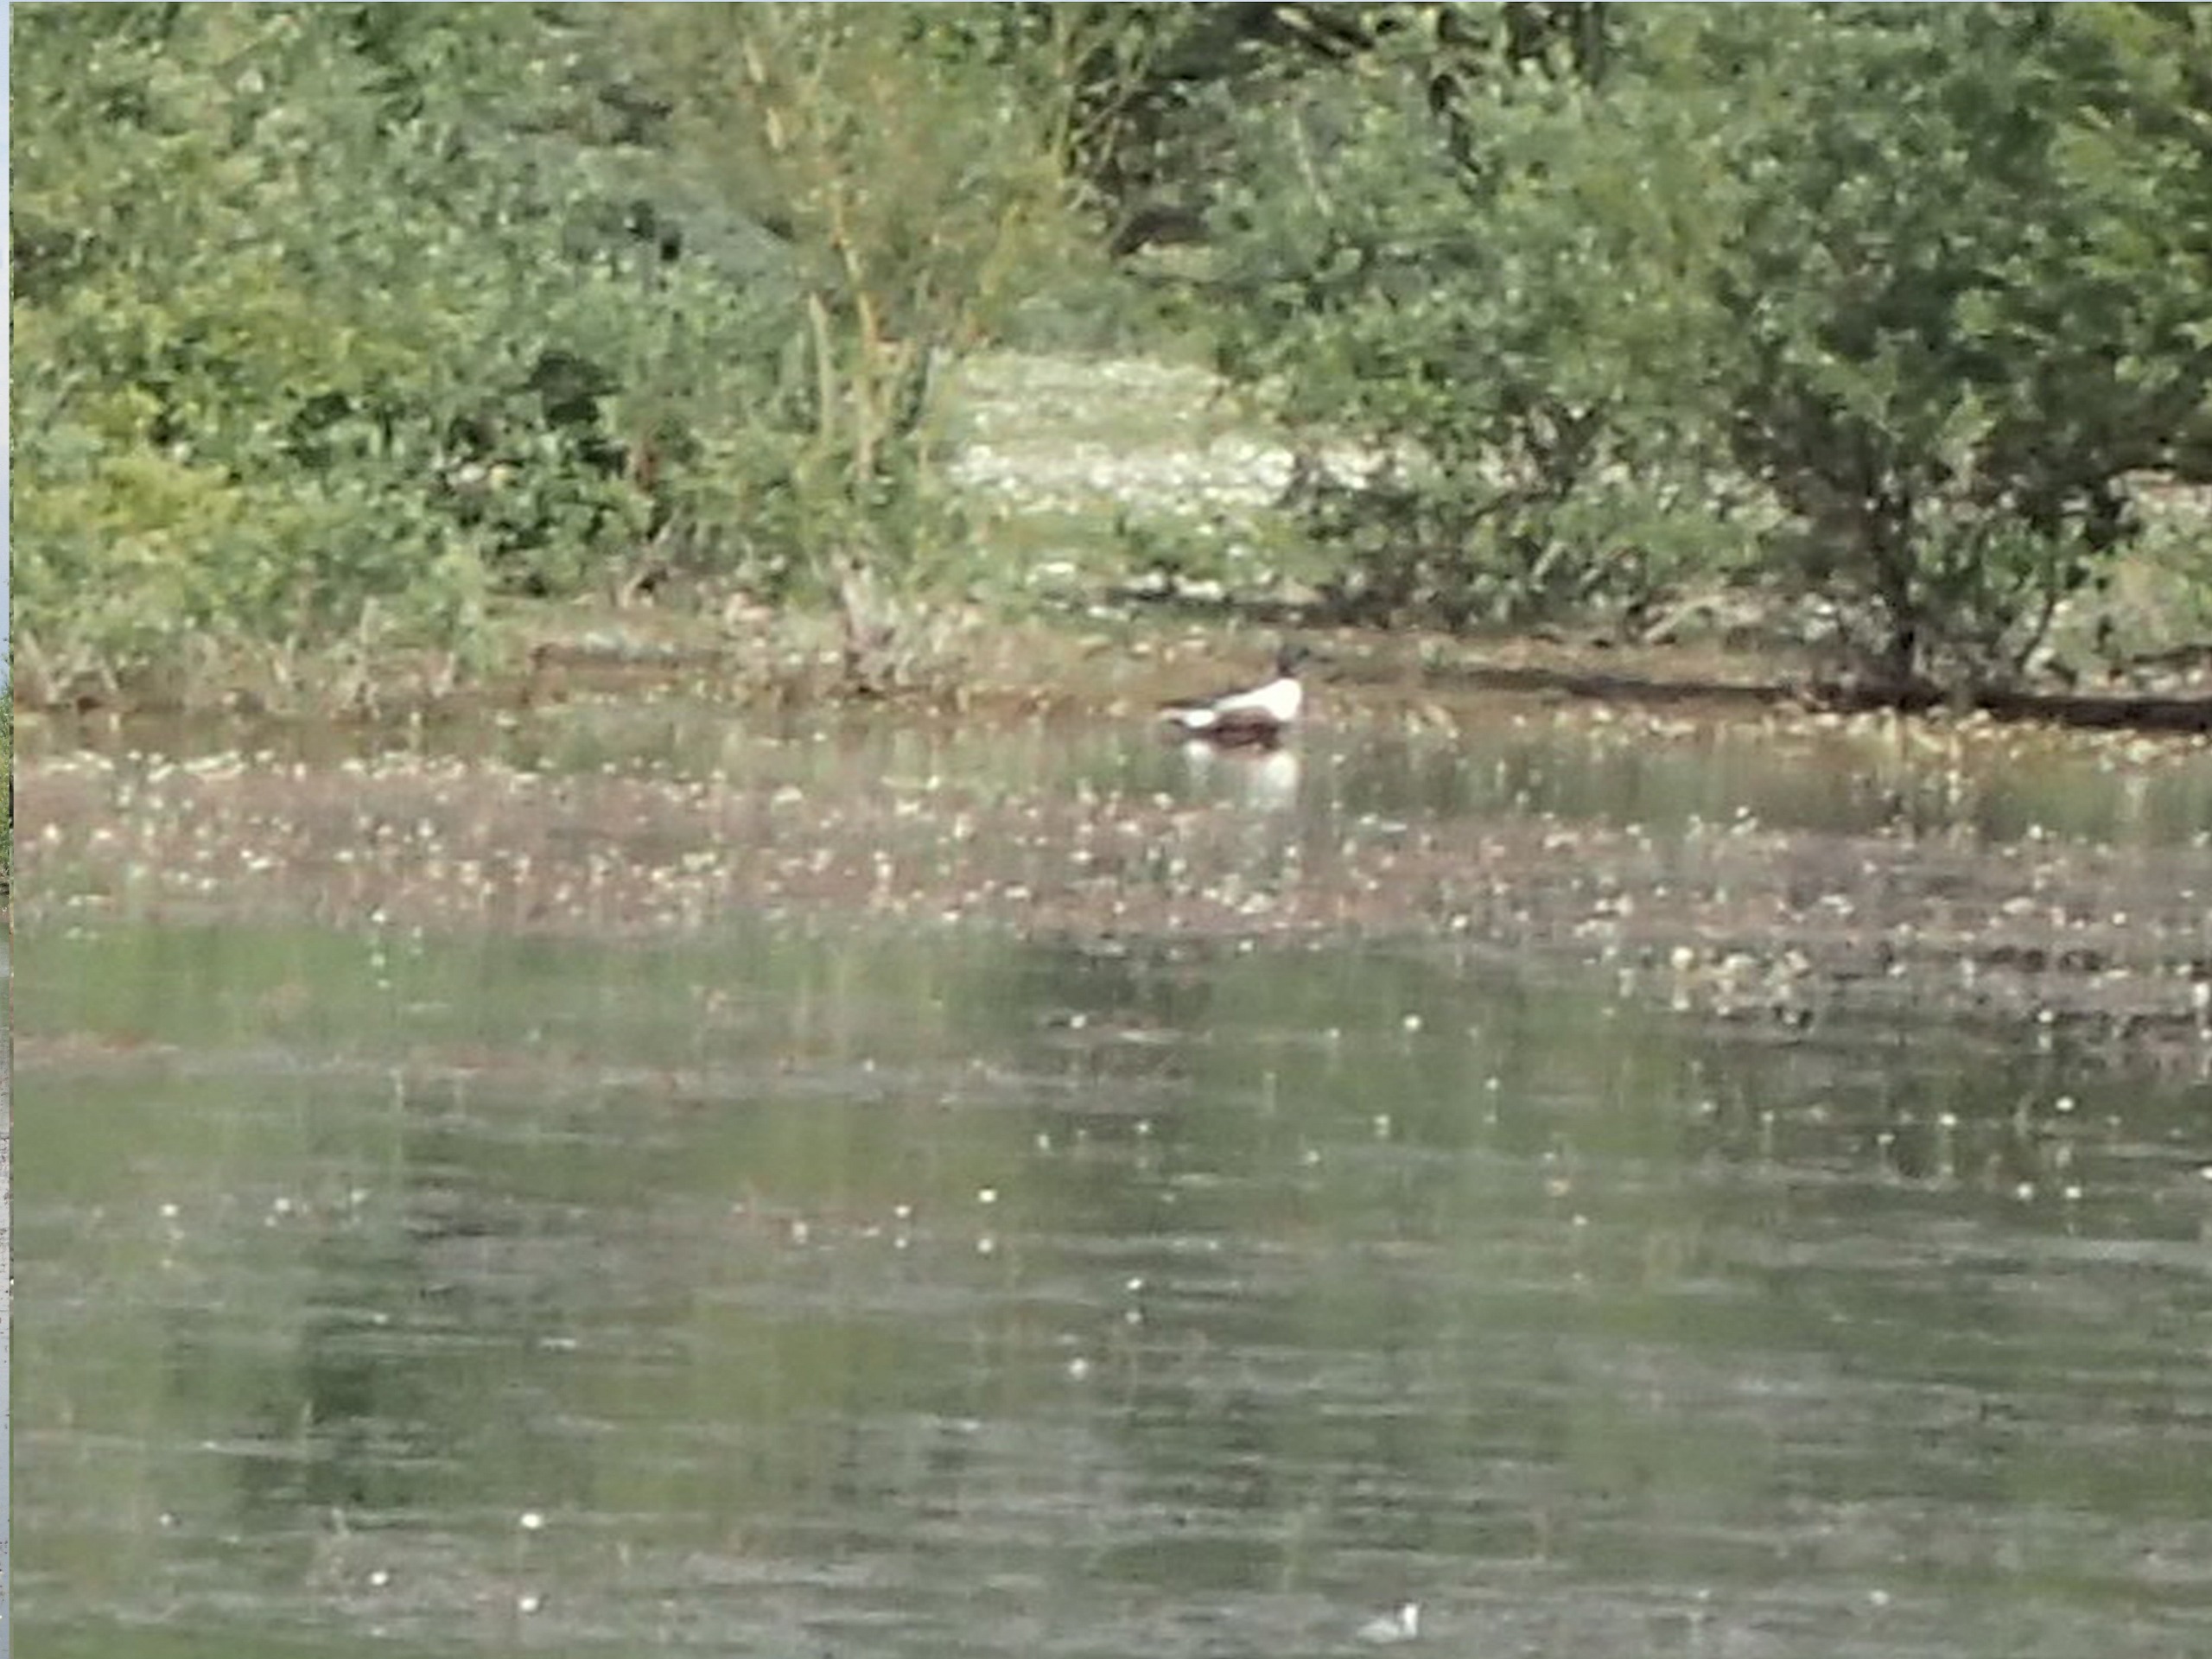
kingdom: Animalia
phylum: Chordata
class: Aves
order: Anseriformes
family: Anatidae
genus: Spatula
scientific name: Spatula clypeata
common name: Skeand
